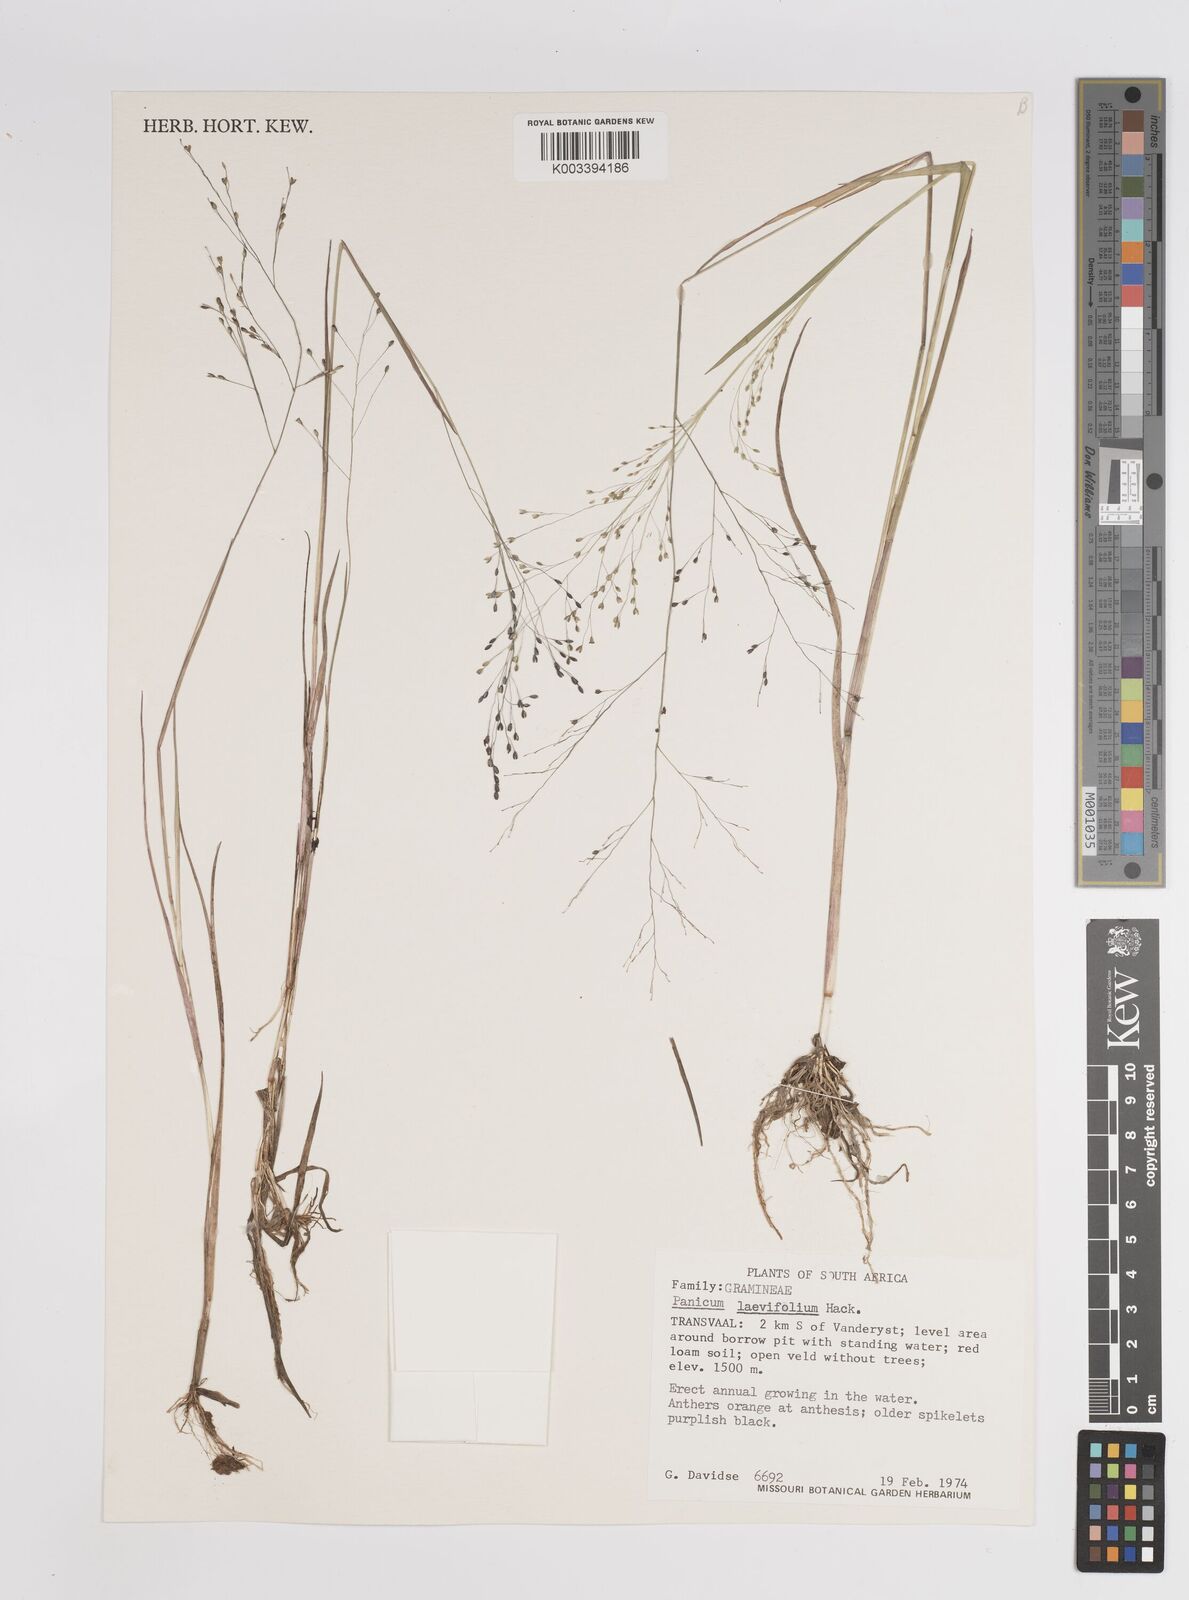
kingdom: Plantae
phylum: Tracheophyta
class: Liliopsida
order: Poales
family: Poaceae
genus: Panicum
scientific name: Panicum schinzii
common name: Sweet grass
